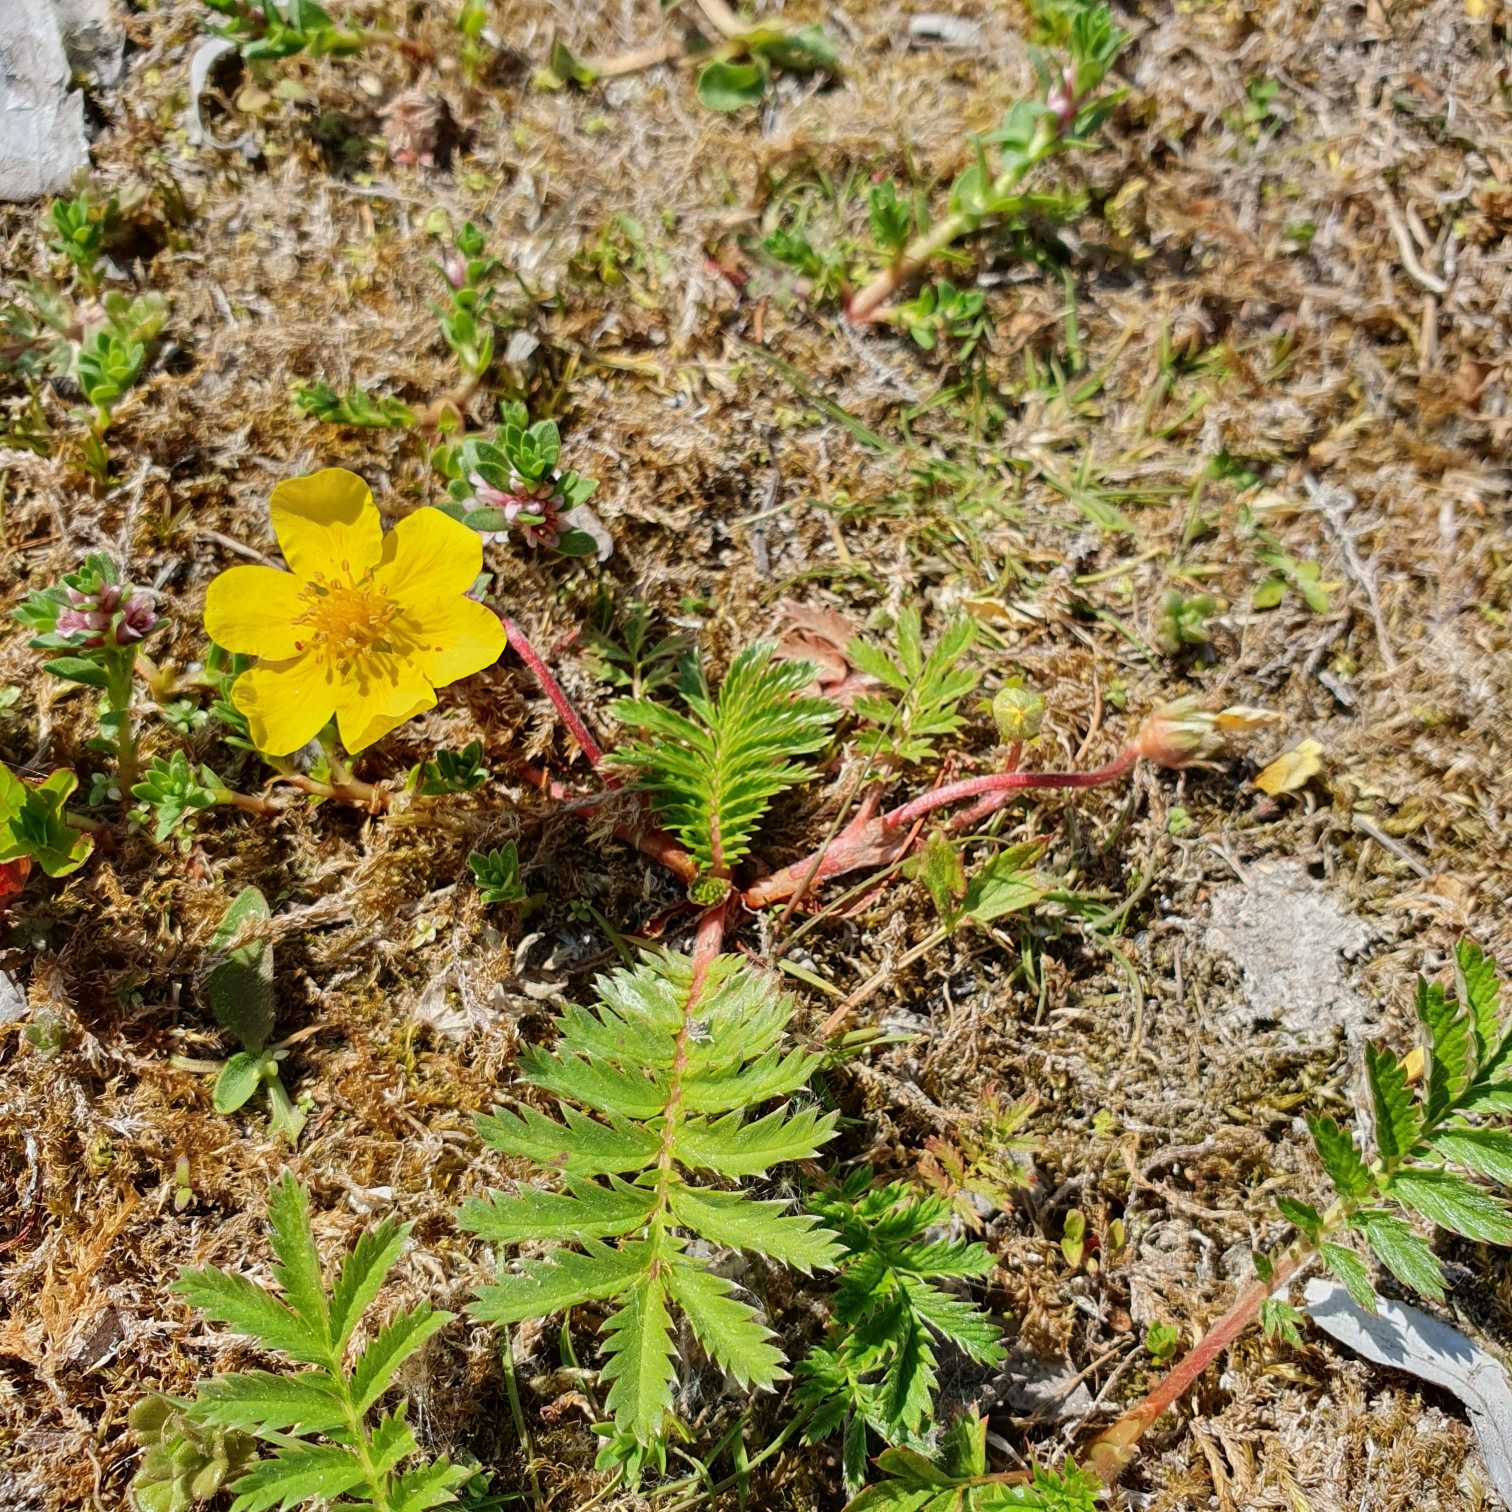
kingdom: Plantae
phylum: Tracheophyta
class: Magnoliopsida
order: Rosales
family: Rosaceae
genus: Argentina
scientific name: Argentina anserina
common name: Gåsepotentil
